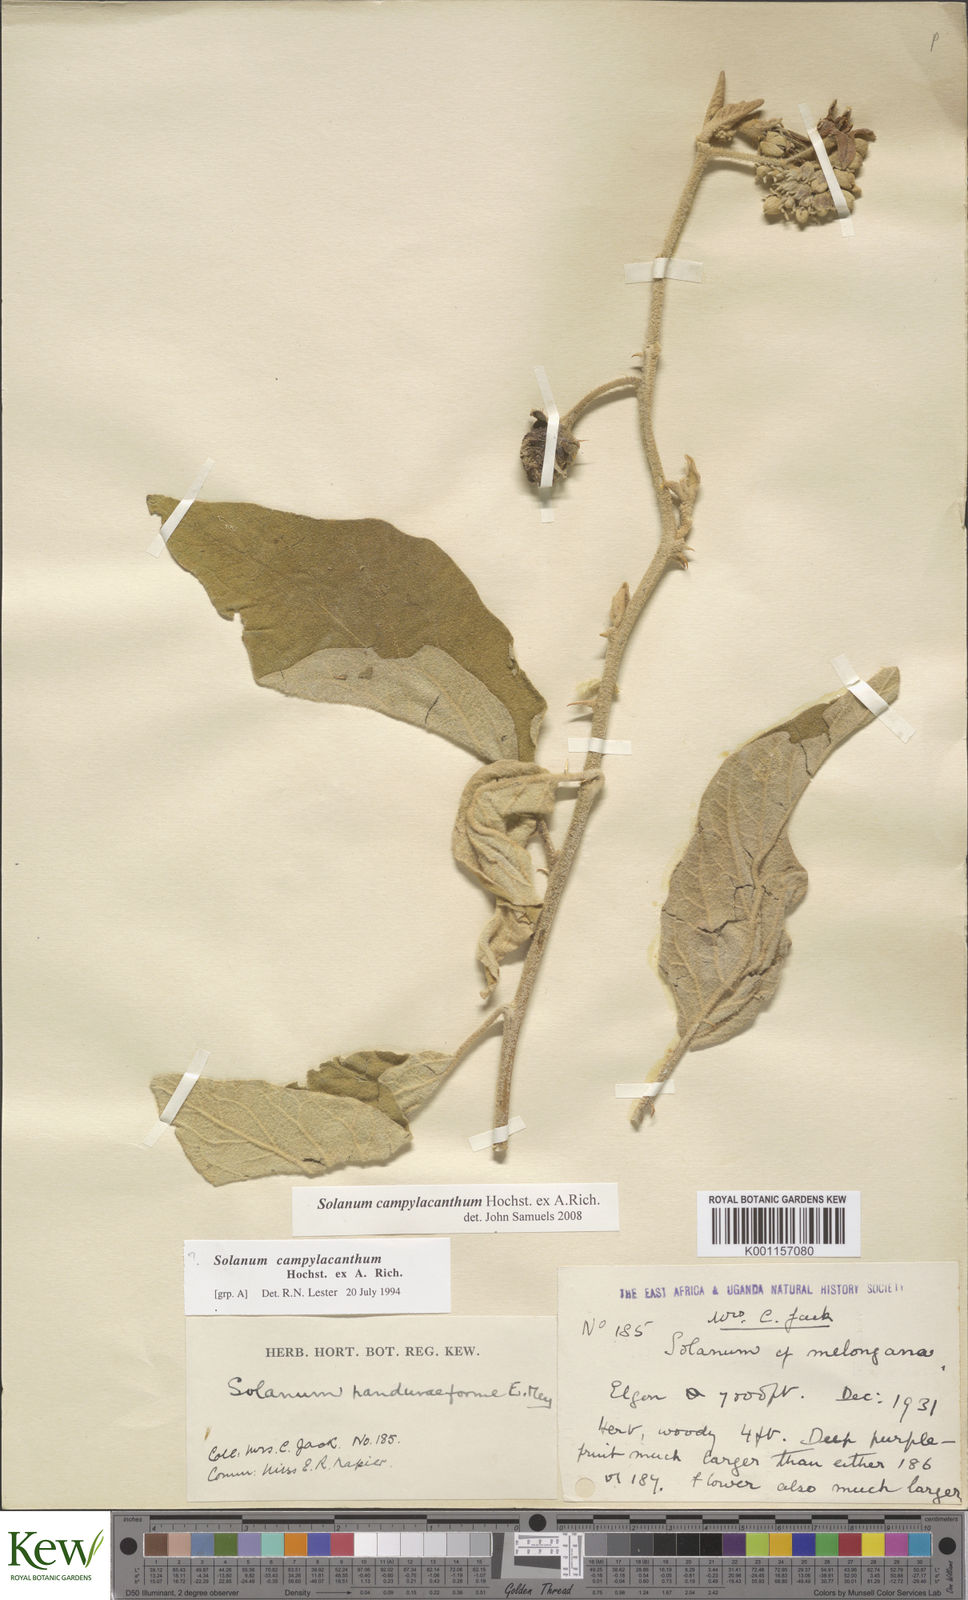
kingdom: Plantae
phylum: Tracheophyta
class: Magnoliopsida
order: Solanales
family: Solanaceae
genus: Solanum
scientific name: Solanum campylacanthum
